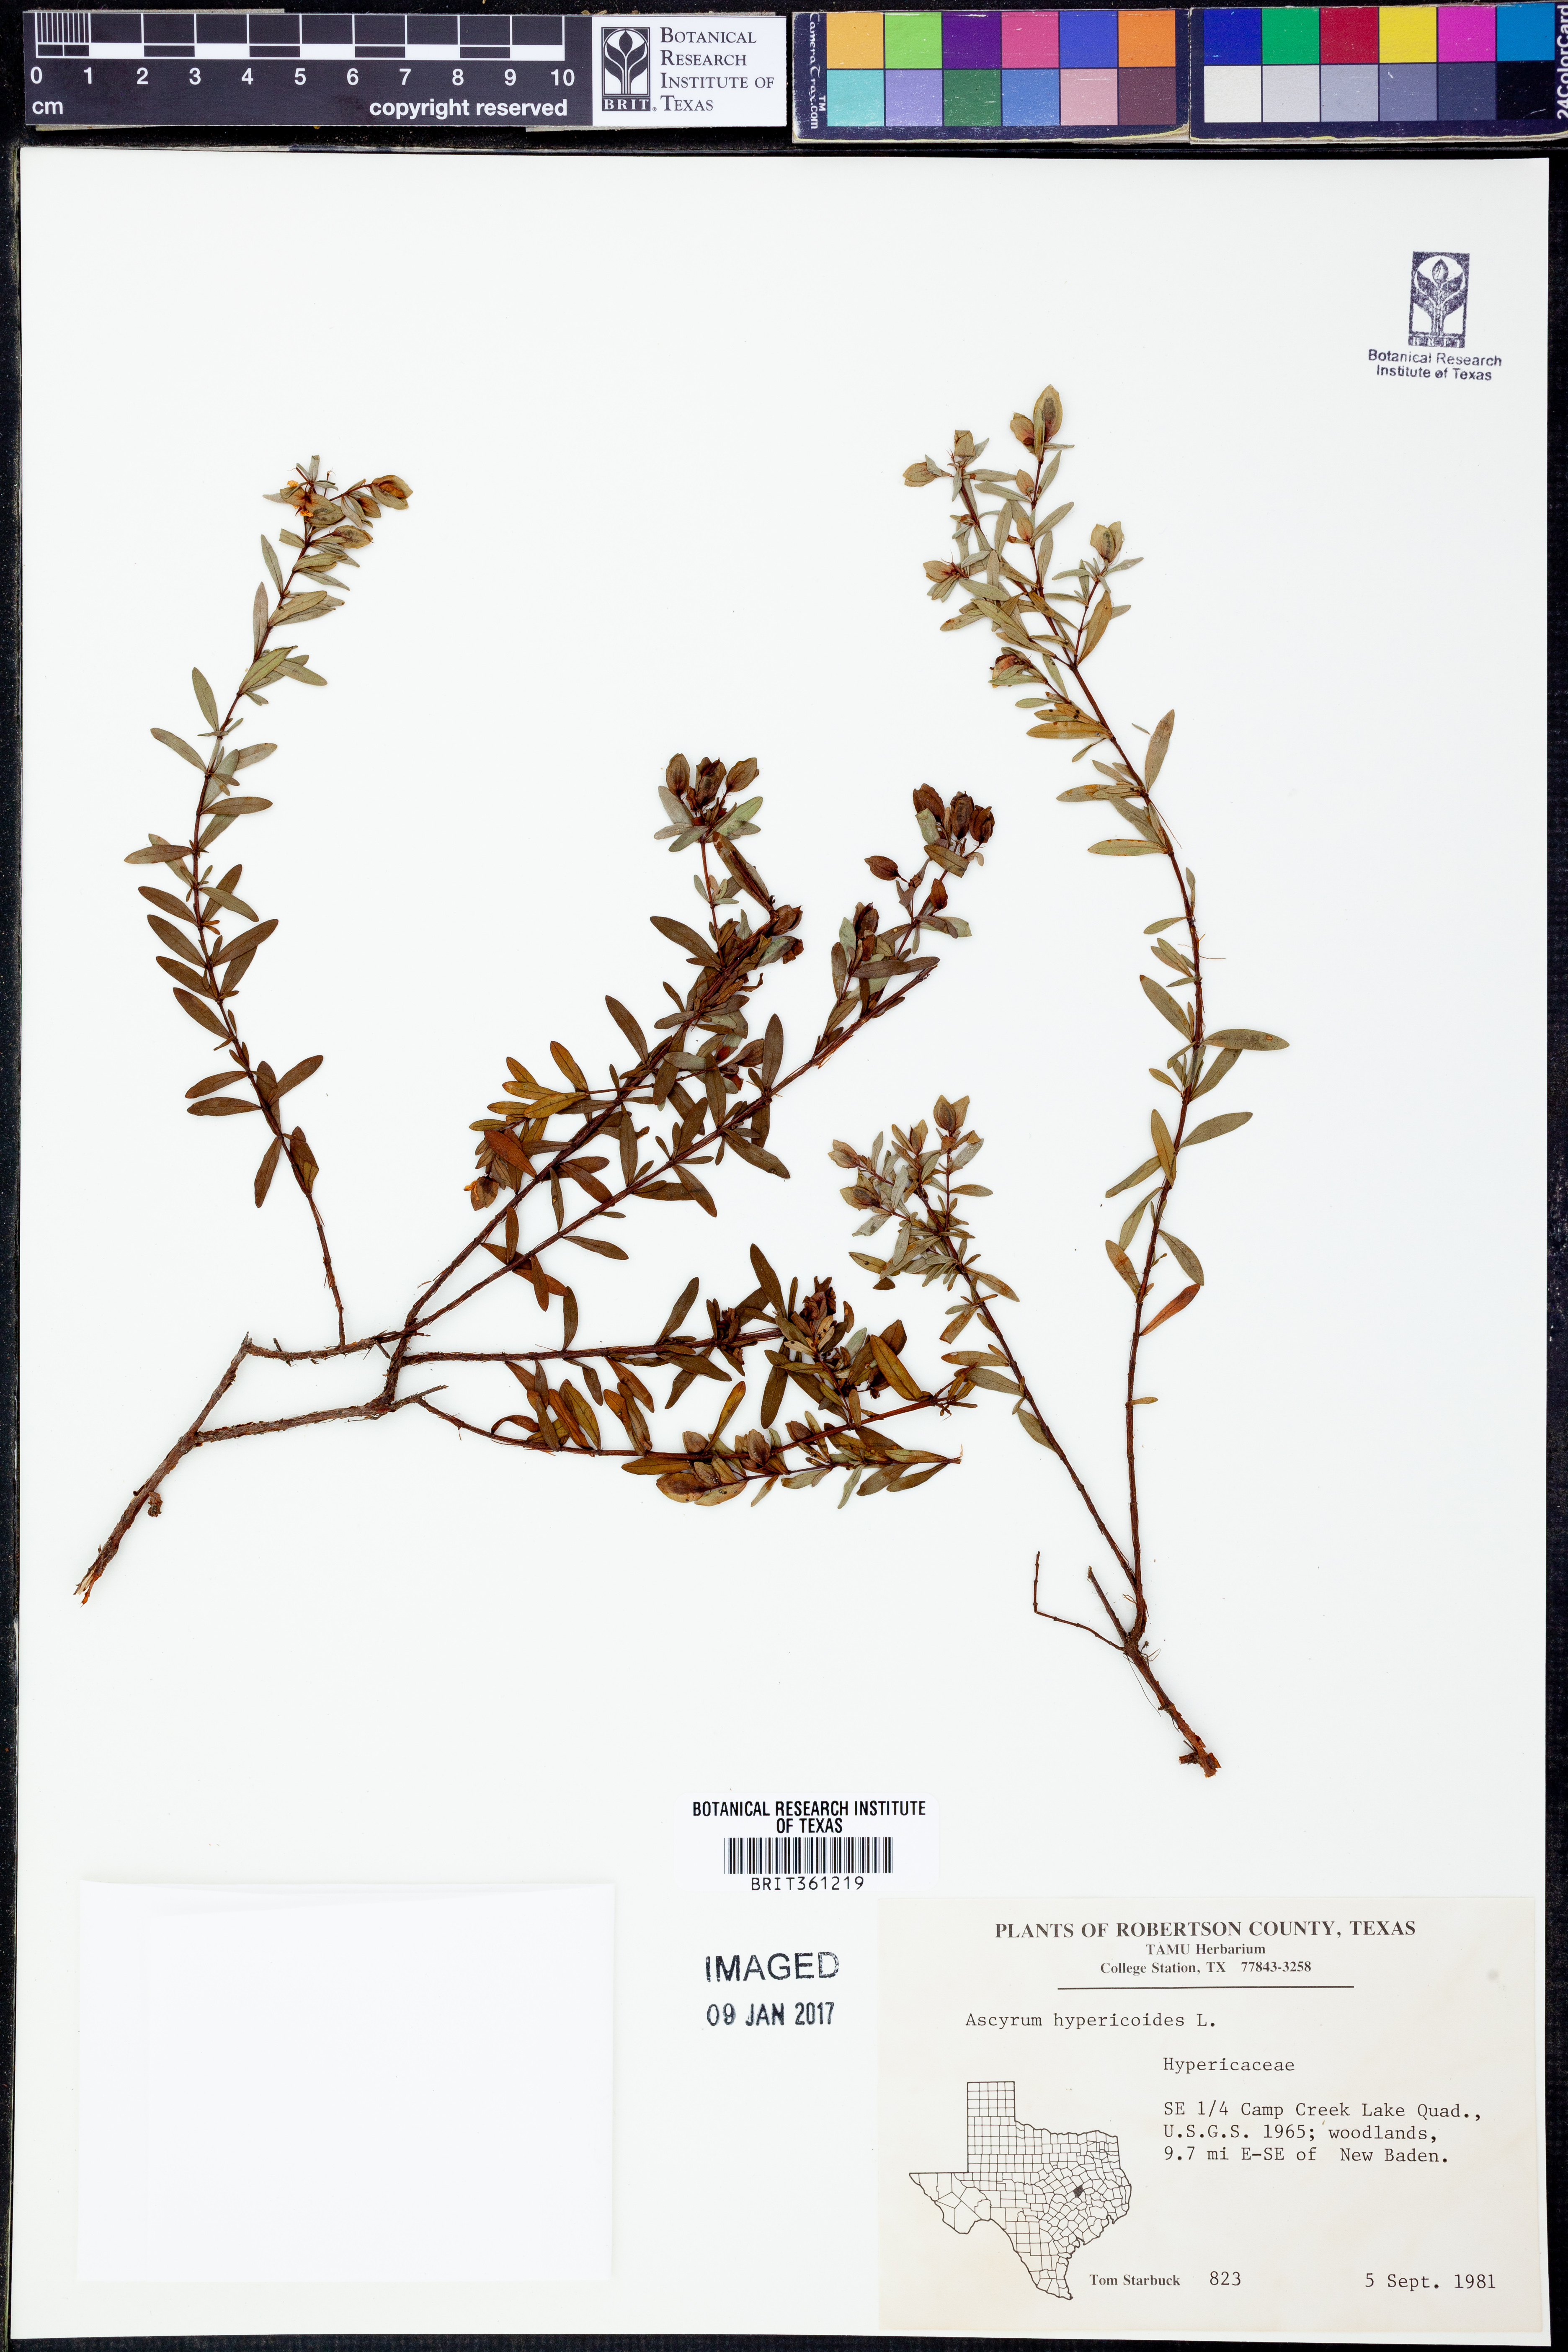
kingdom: Plantae
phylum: Tracheophyta
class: Magnoliopsida
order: Malpighiales
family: Hypericaceae
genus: Hypericum
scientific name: Hypericum hypericoides
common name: St. andrew's cross
